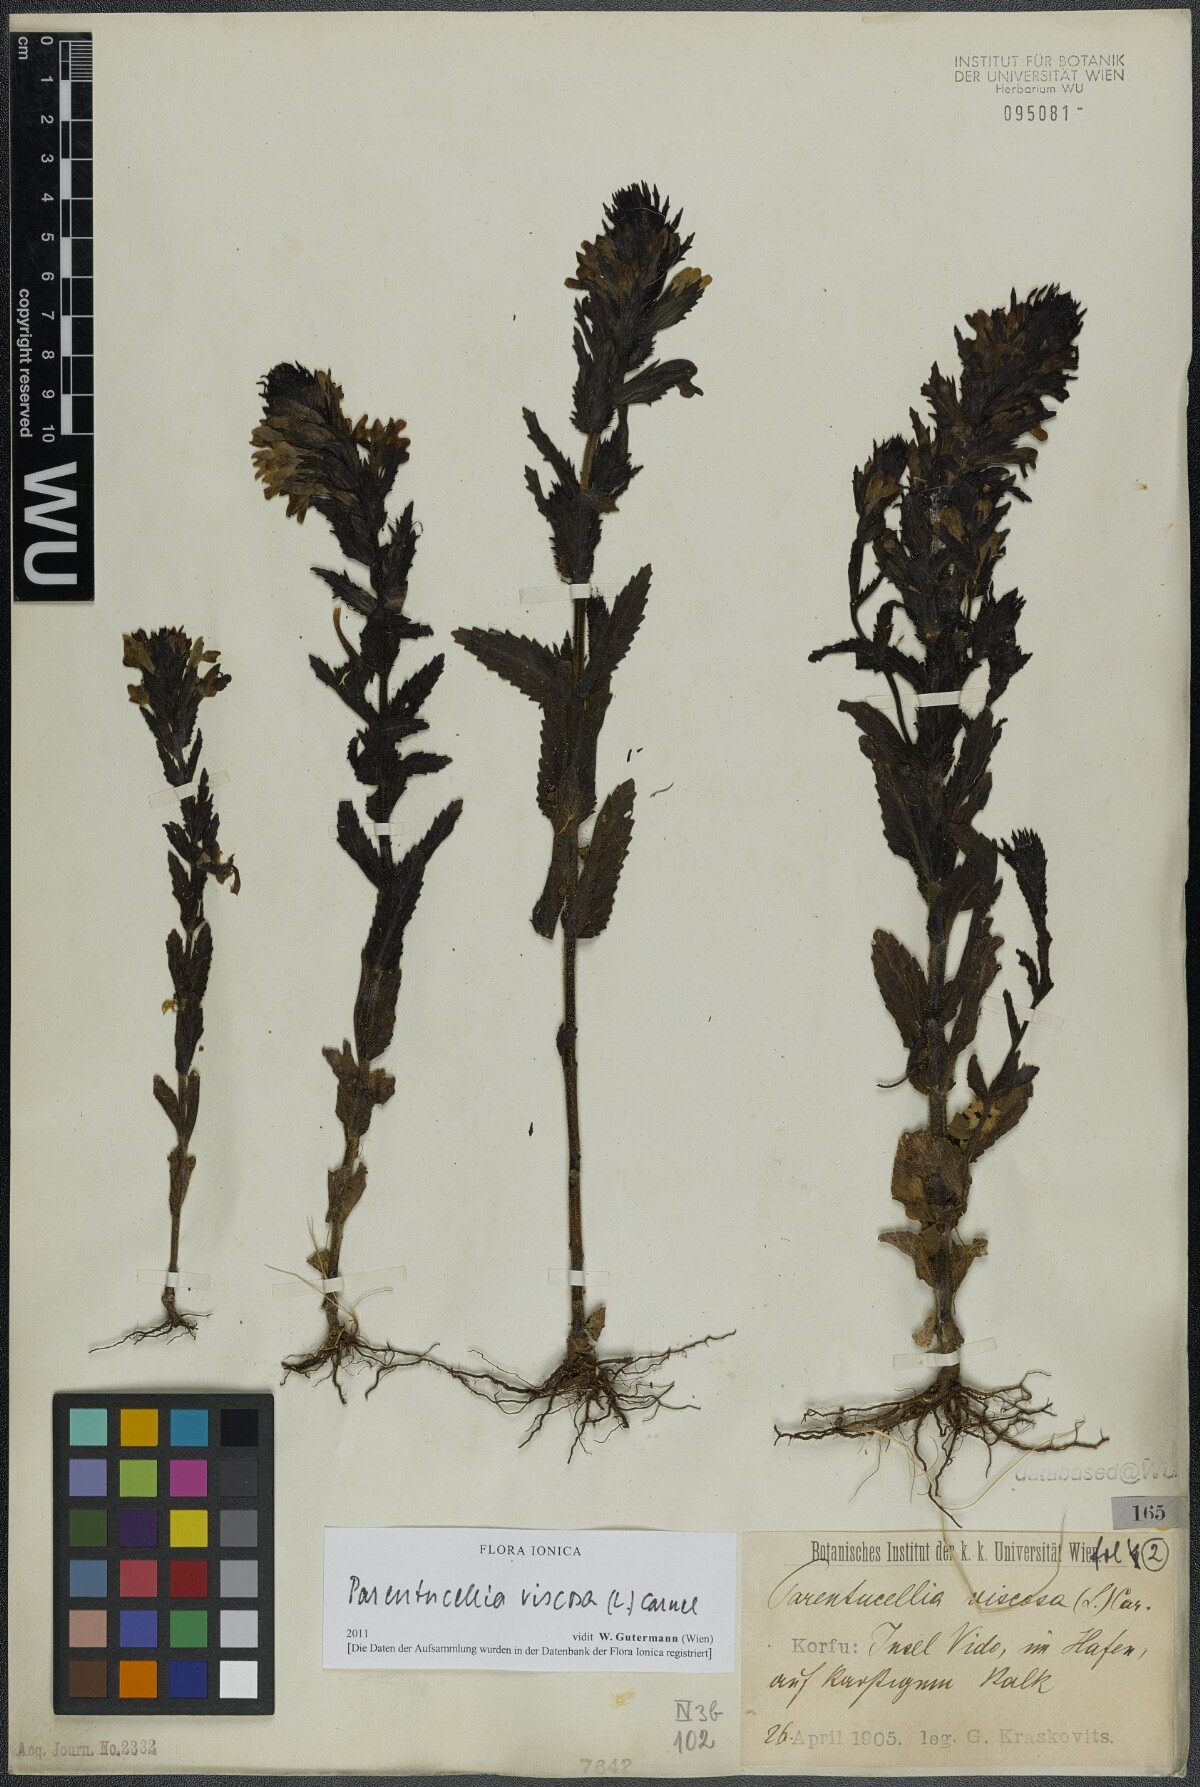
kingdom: Plantae
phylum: Tracheophyta
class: Magnoliopsida
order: Lamiales
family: Orobanchaceae
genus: Bellardia
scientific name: Bellardia viscosa
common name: Sticky parentucellia
